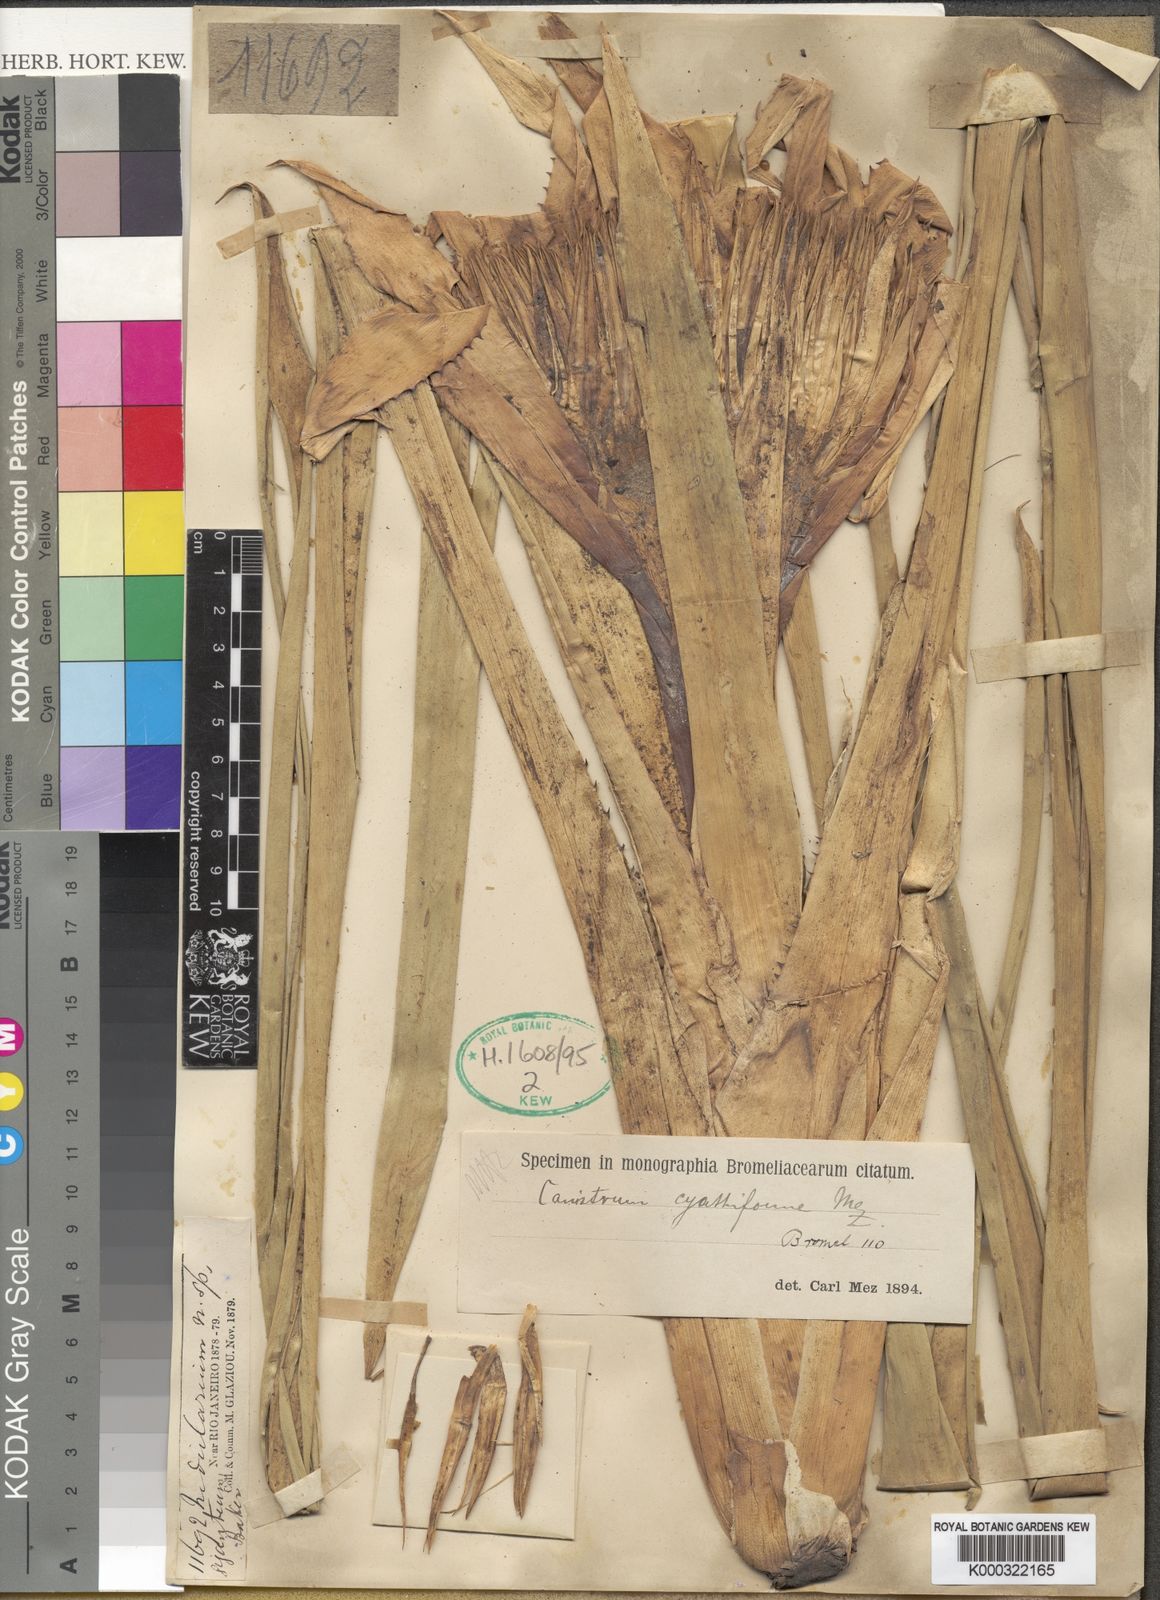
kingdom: Plantae
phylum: Tracheophyta
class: Liliopsida
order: Poales
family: Bromeliaceae
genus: Wittrockia
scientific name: Wittrockia gigantea
